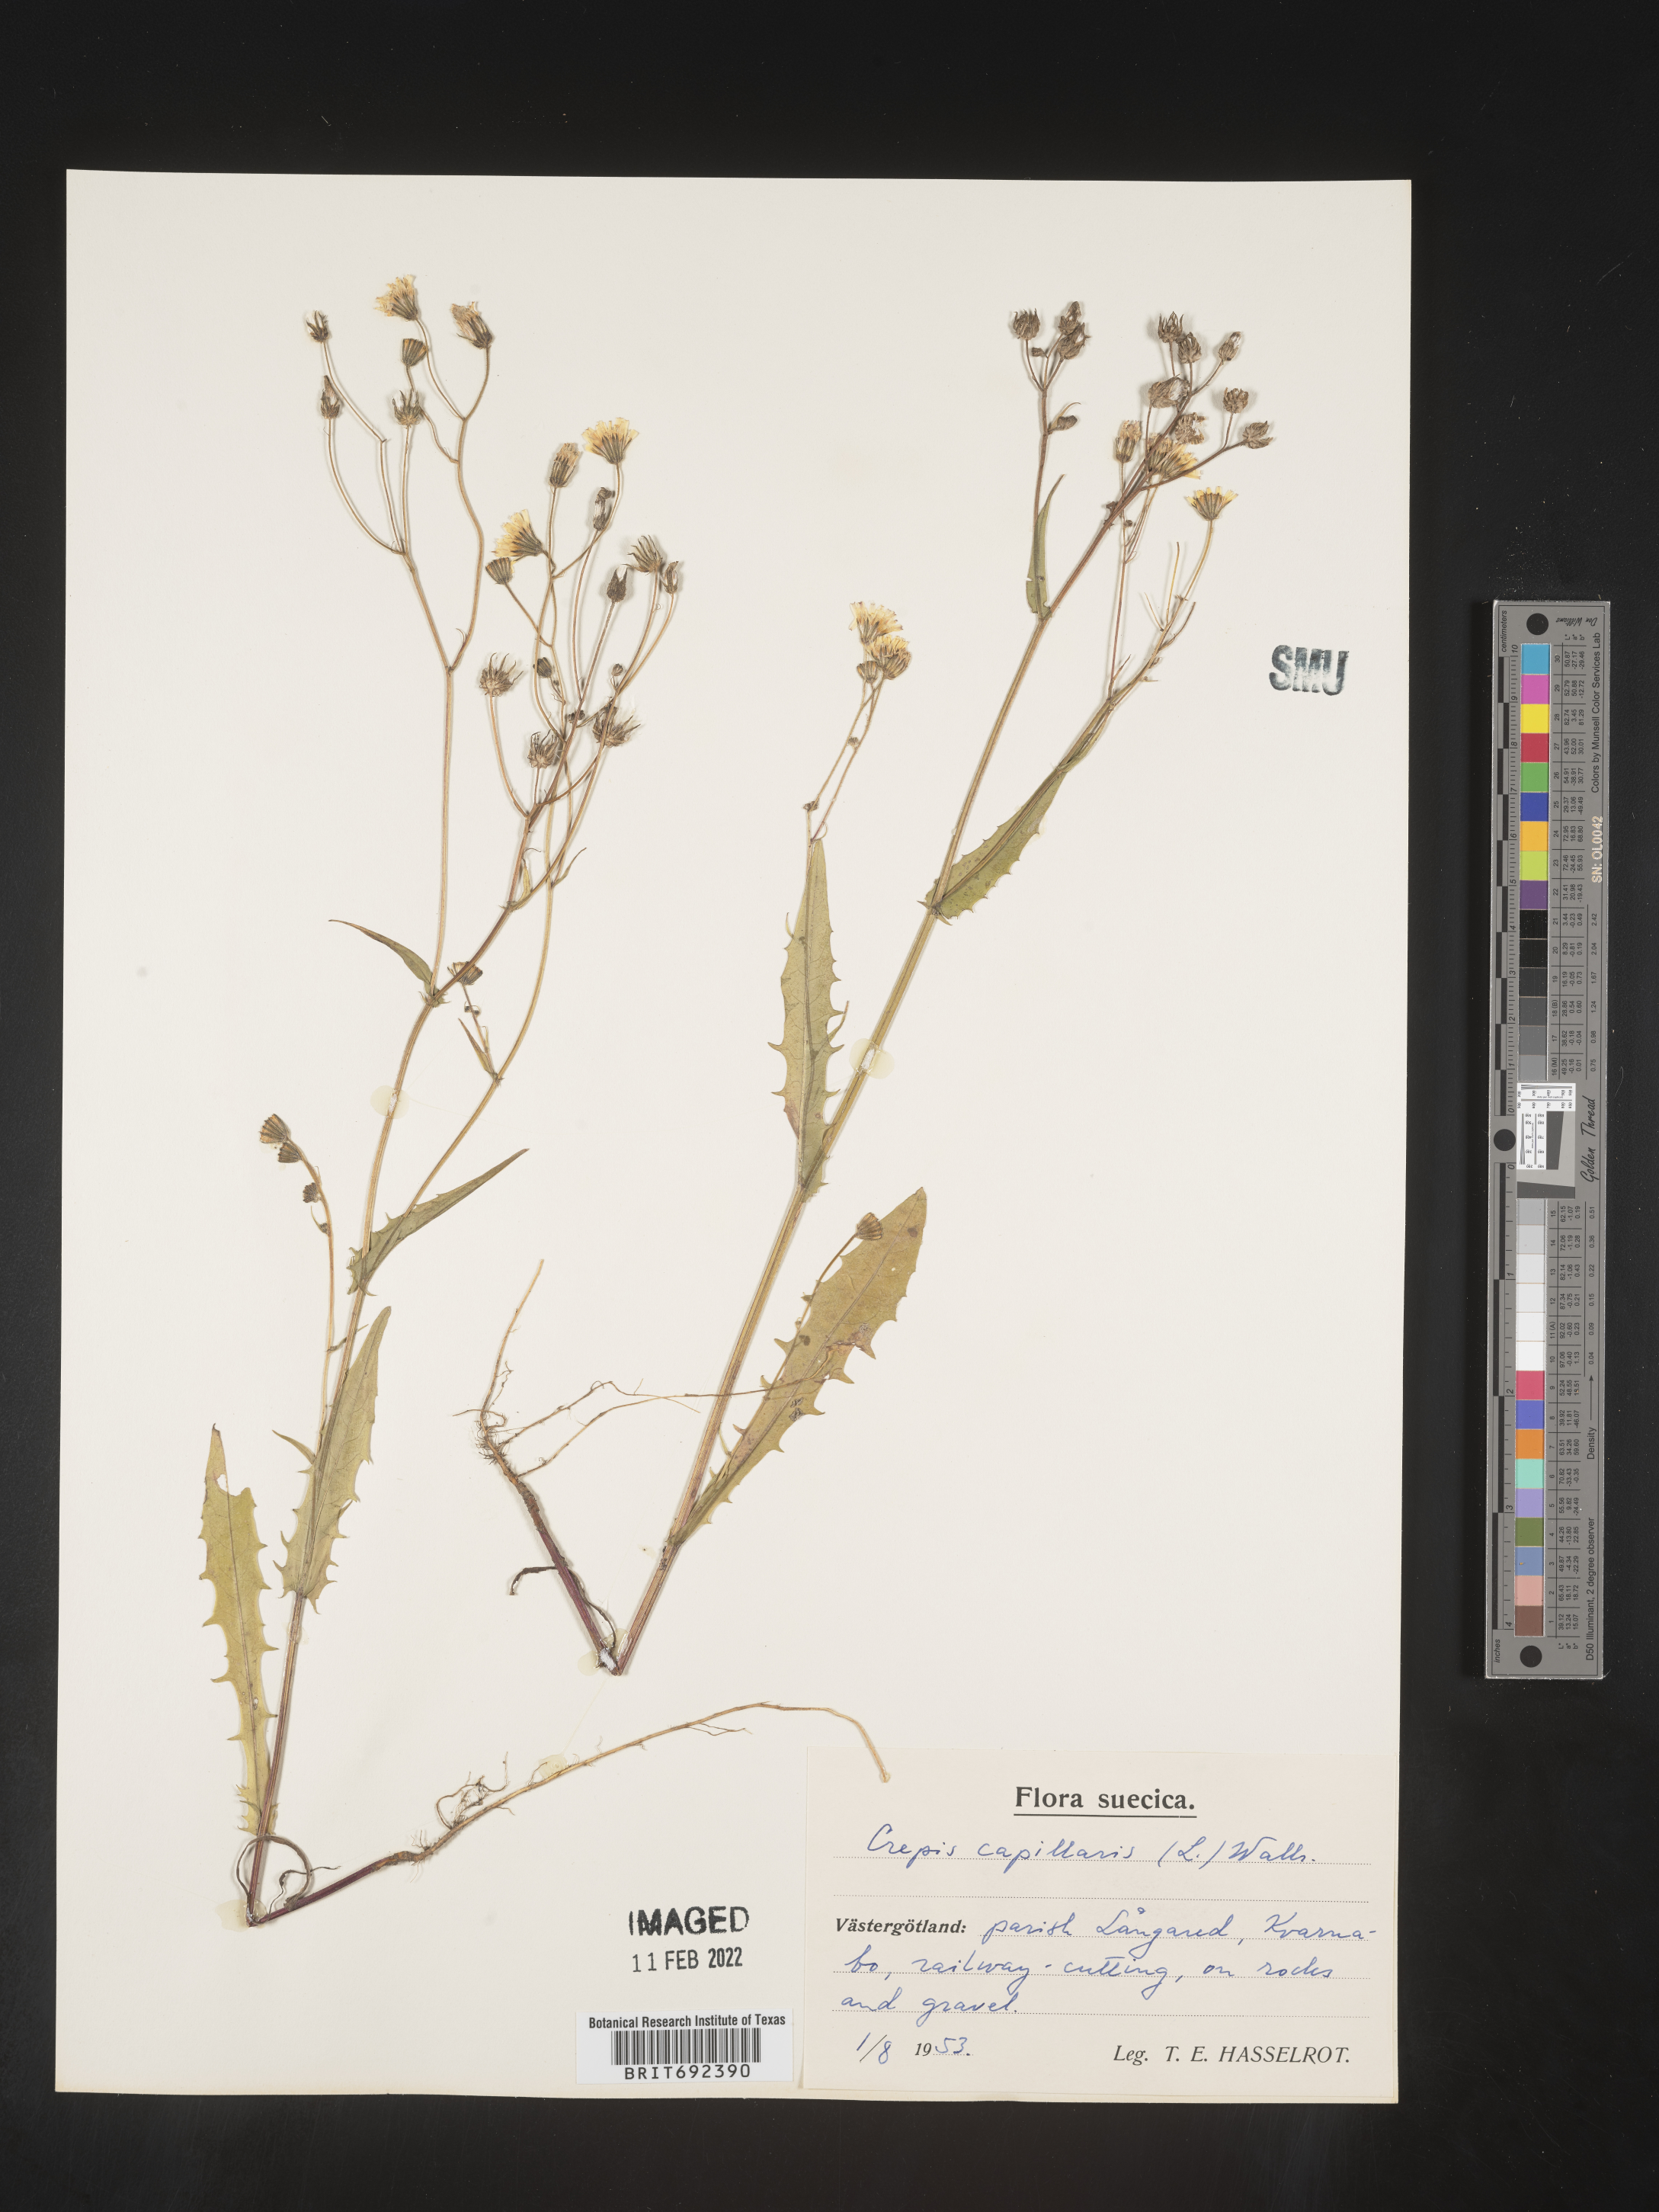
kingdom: Plantae
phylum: Tracheophyta
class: Magnoliopsida
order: Asterales
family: Asteraceae
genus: Crepis
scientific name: Crepis
